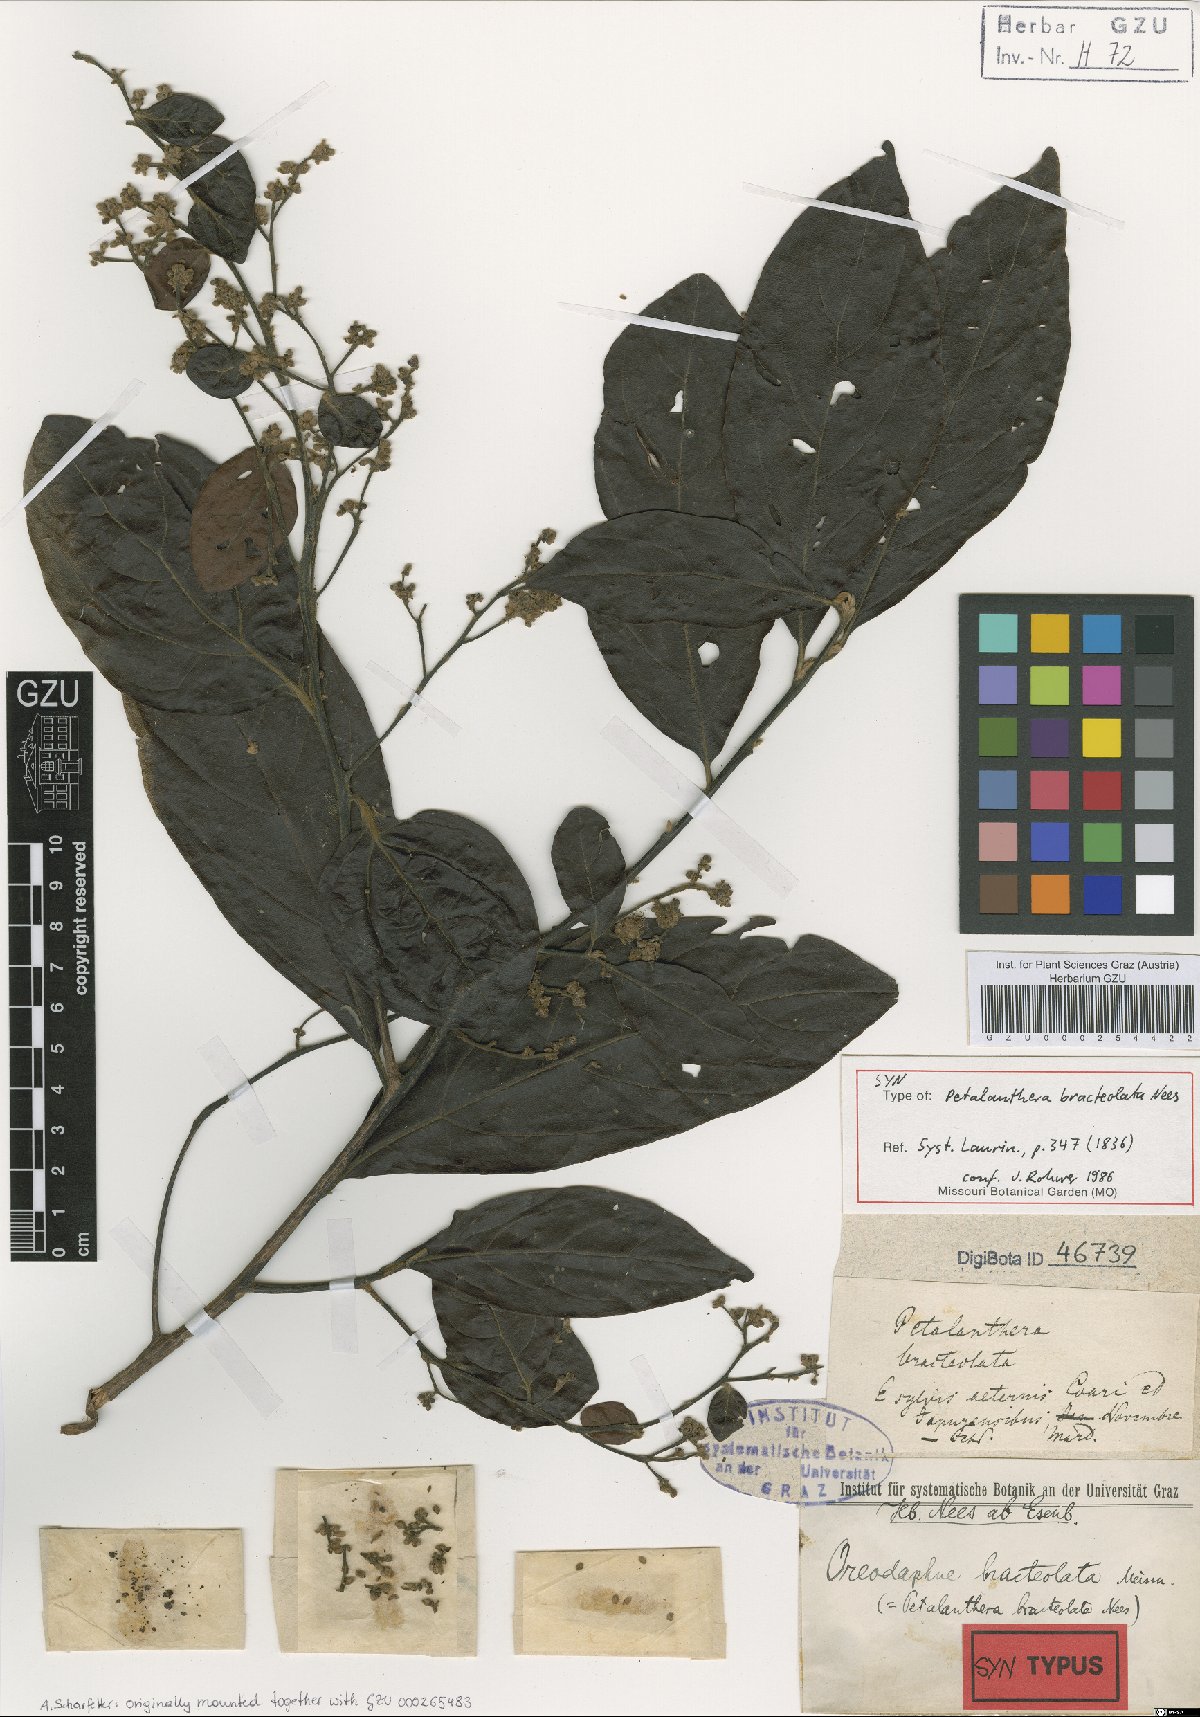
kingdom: Plantae
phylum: Tracheophyta
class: Magnoliopsida
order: Laurales
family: Lauraceae
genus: Ocotea
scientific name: Ocotea petalanthera
